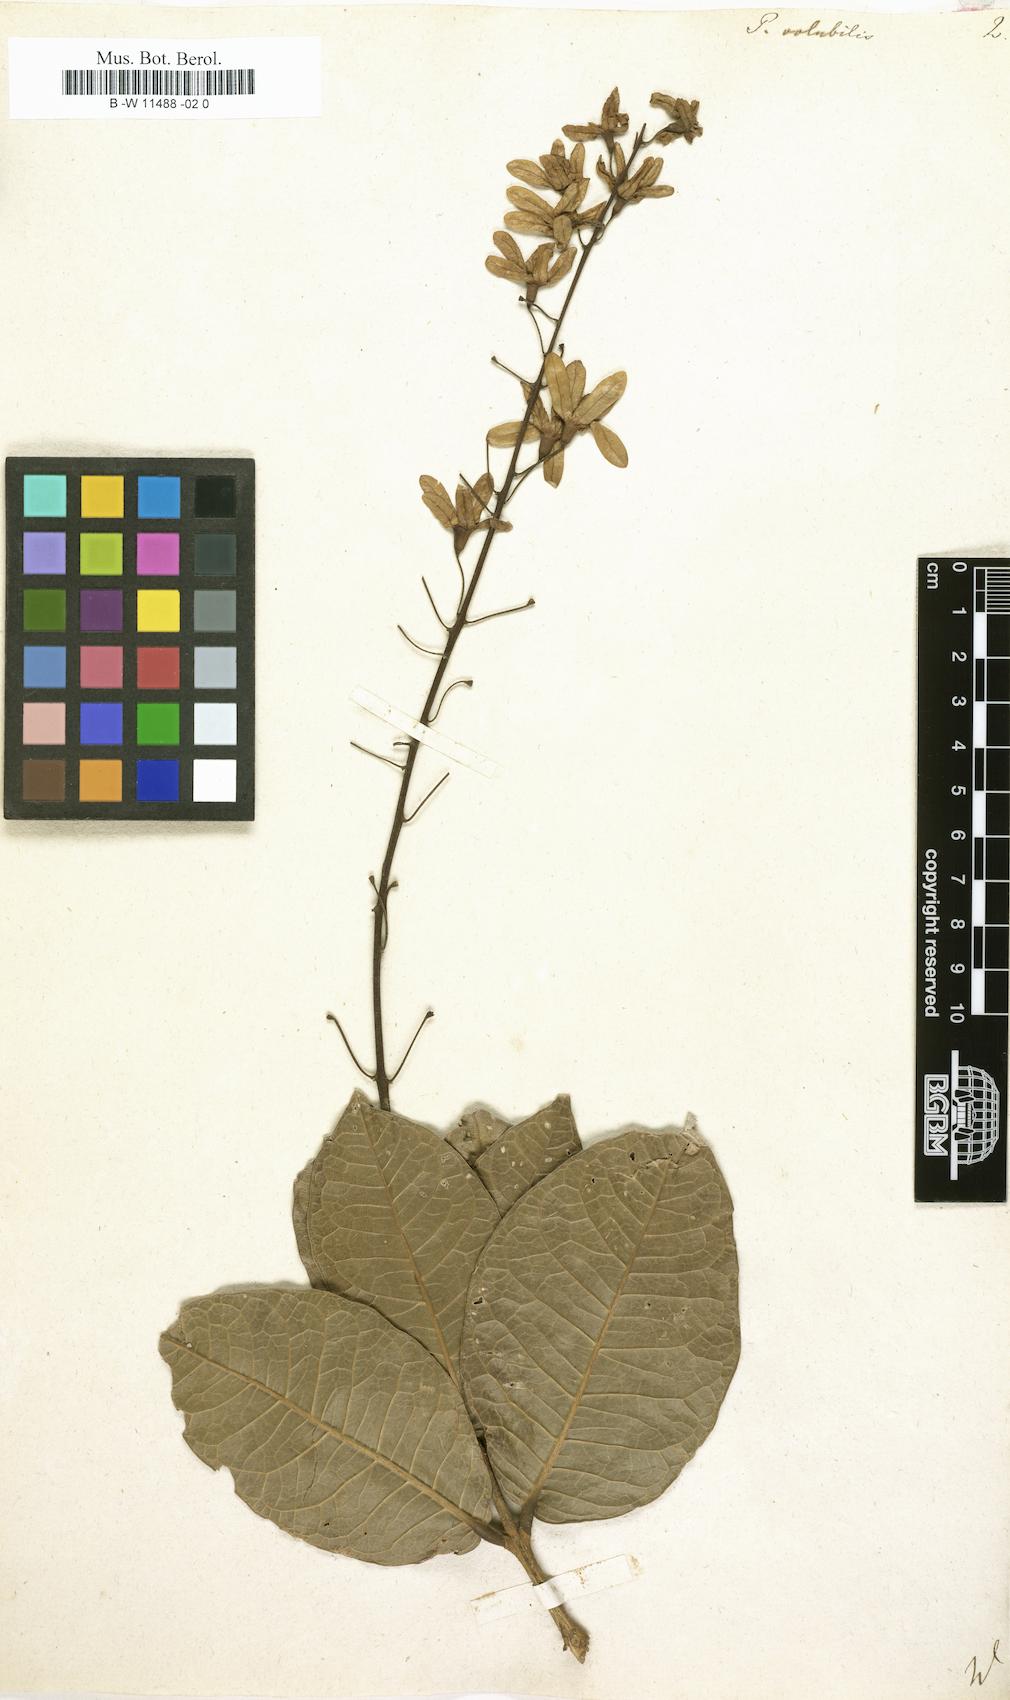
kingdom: Plantae
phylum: Tracheophyta
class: Magnoliopsida
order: Lamiales
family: Verbenaceae
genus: Petrea
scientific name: Petrea volubilis
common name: Queen's-wreath
